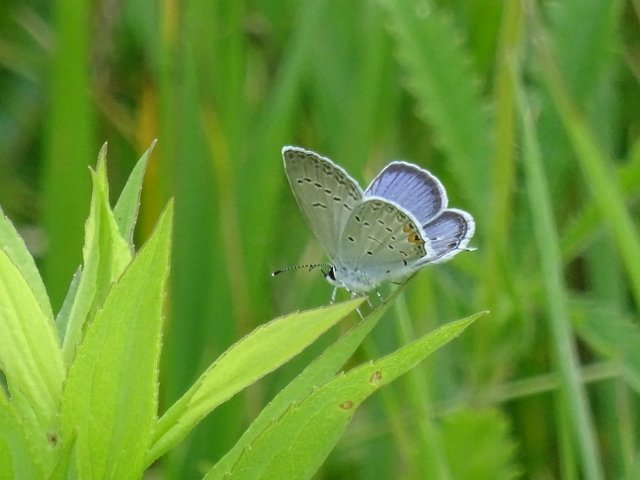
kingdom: Animalia
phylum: Arthropoda
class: Insecta
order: Lepidoptera
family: Lycaenidae
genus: Elkalyce
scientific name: Elkalyce comyntas
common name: Eastern Tailed-Blue
